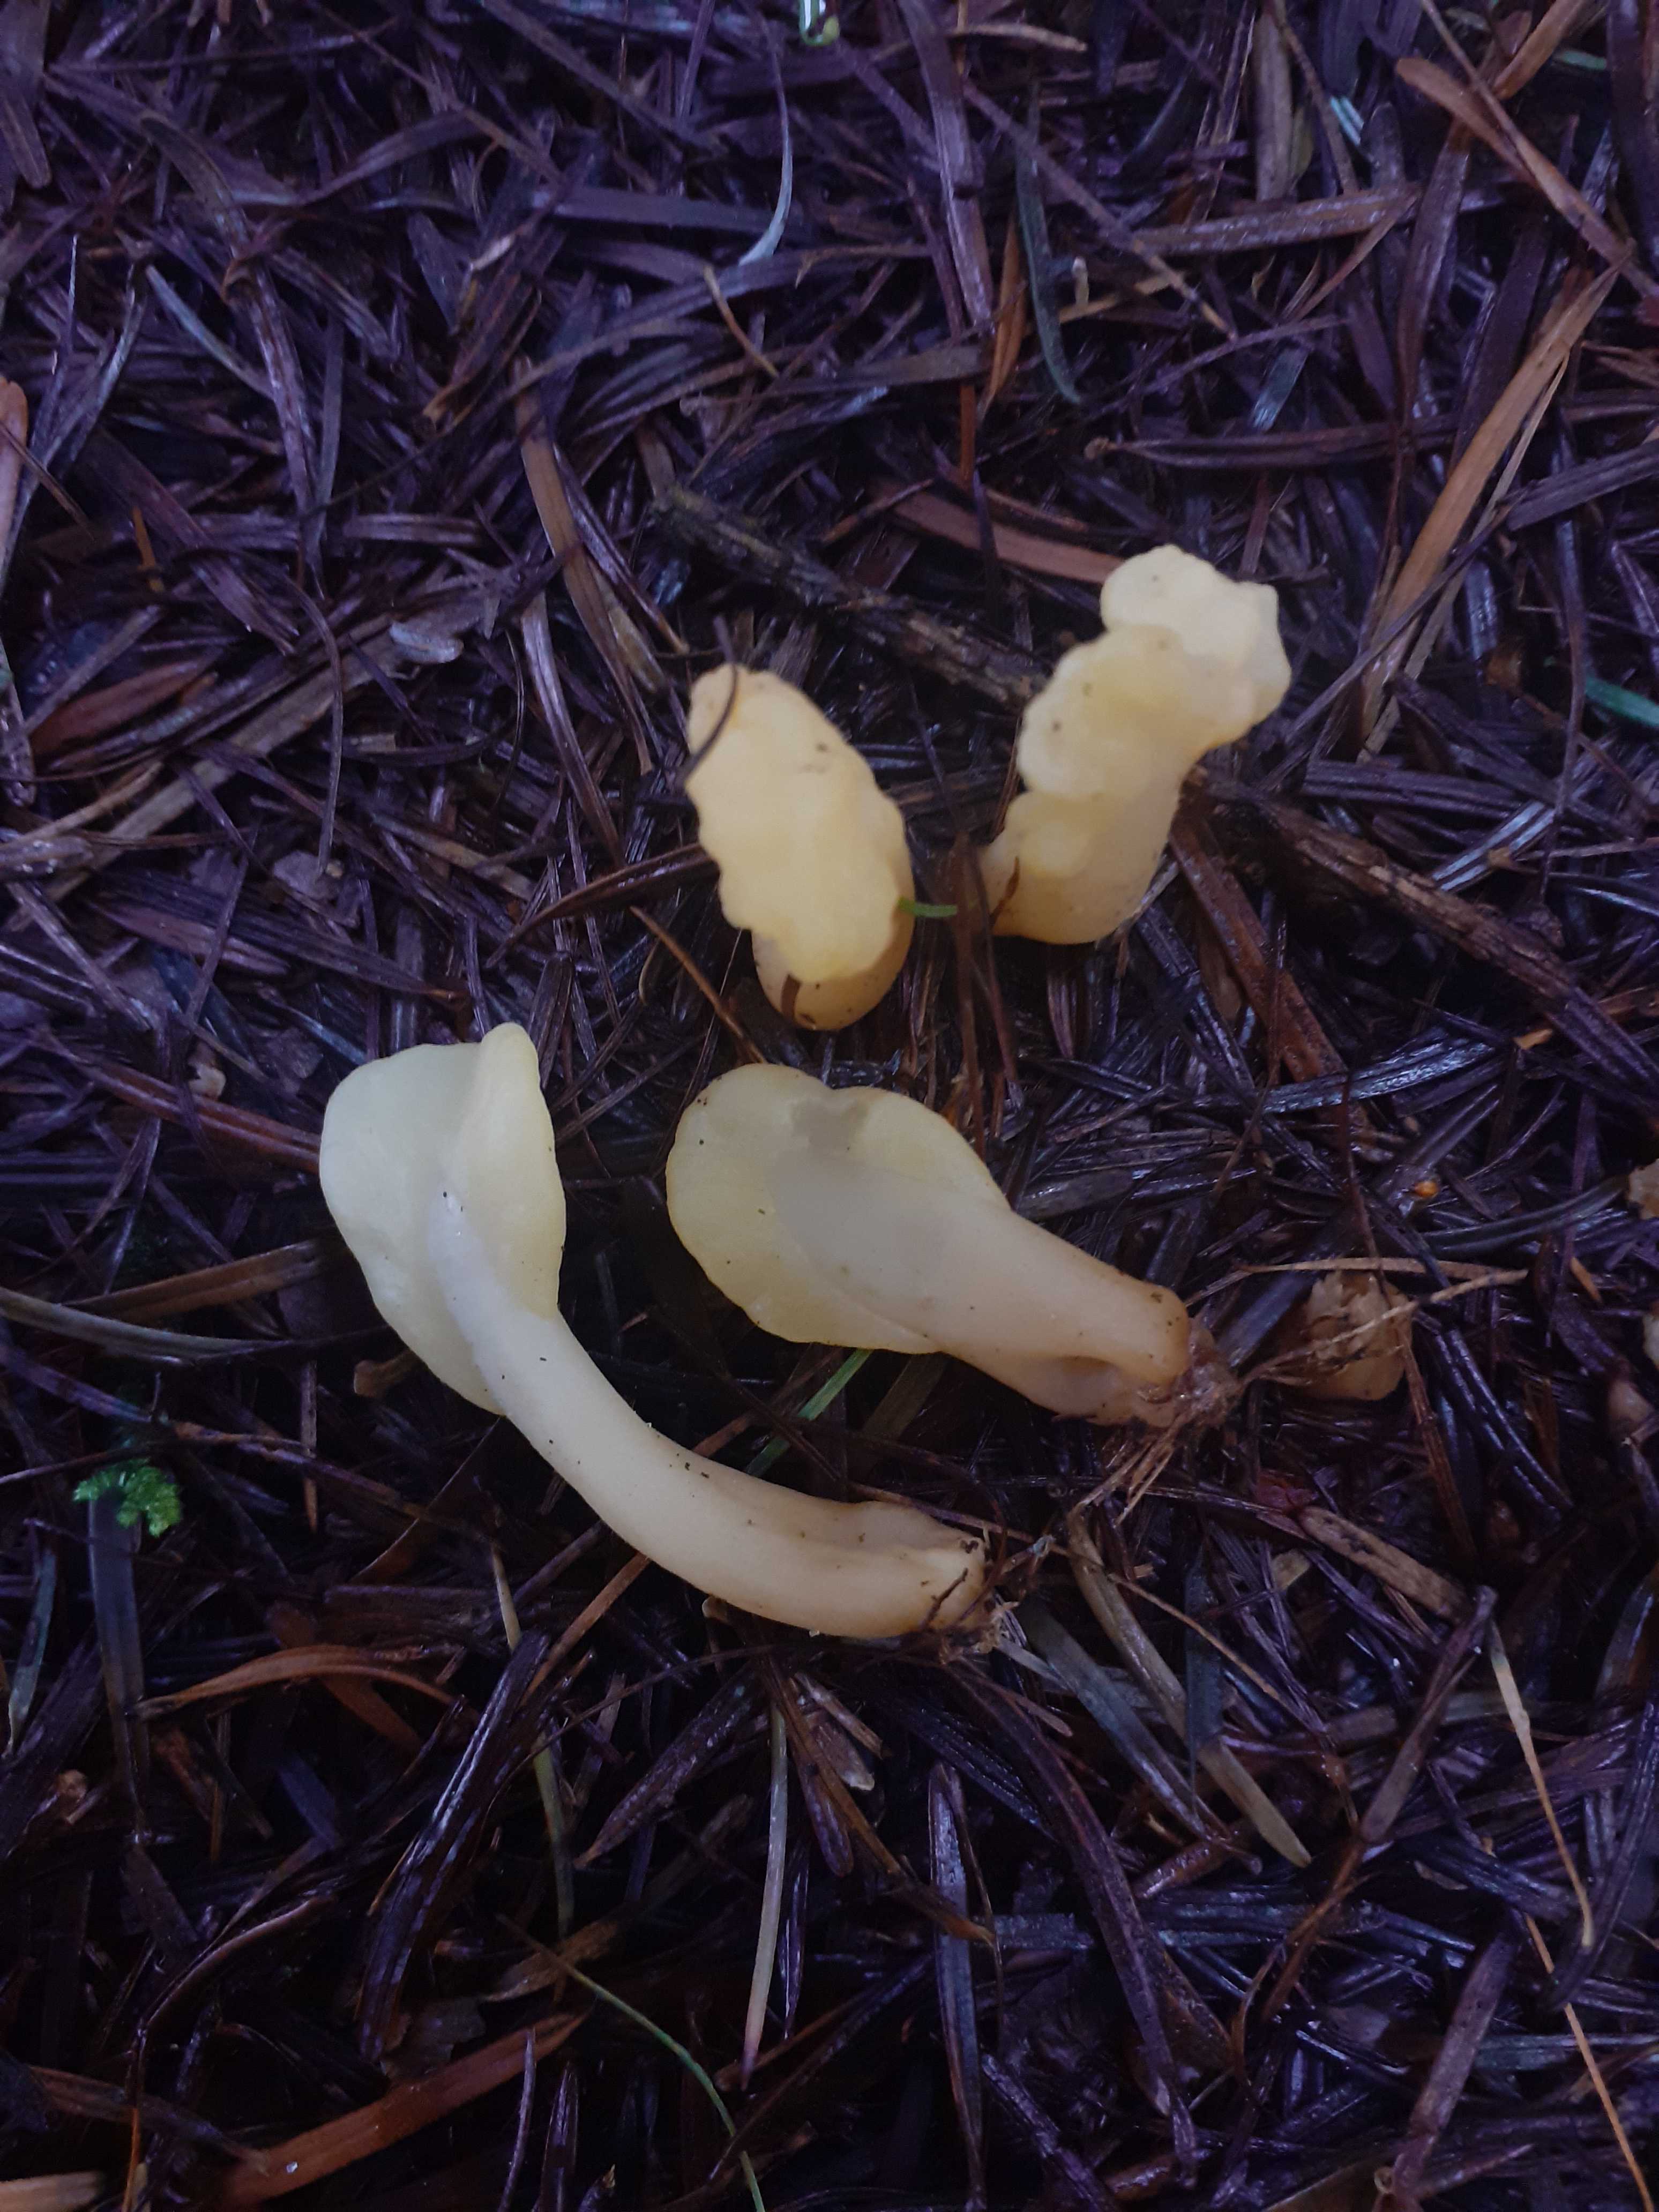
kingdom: Fungi
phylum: Ascomycota
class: Leotiomycetes
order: Rhytismatales
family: Cudoniaceae
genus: Spathularia
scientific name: Spathularia flavida
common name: gul spatelsvamp
